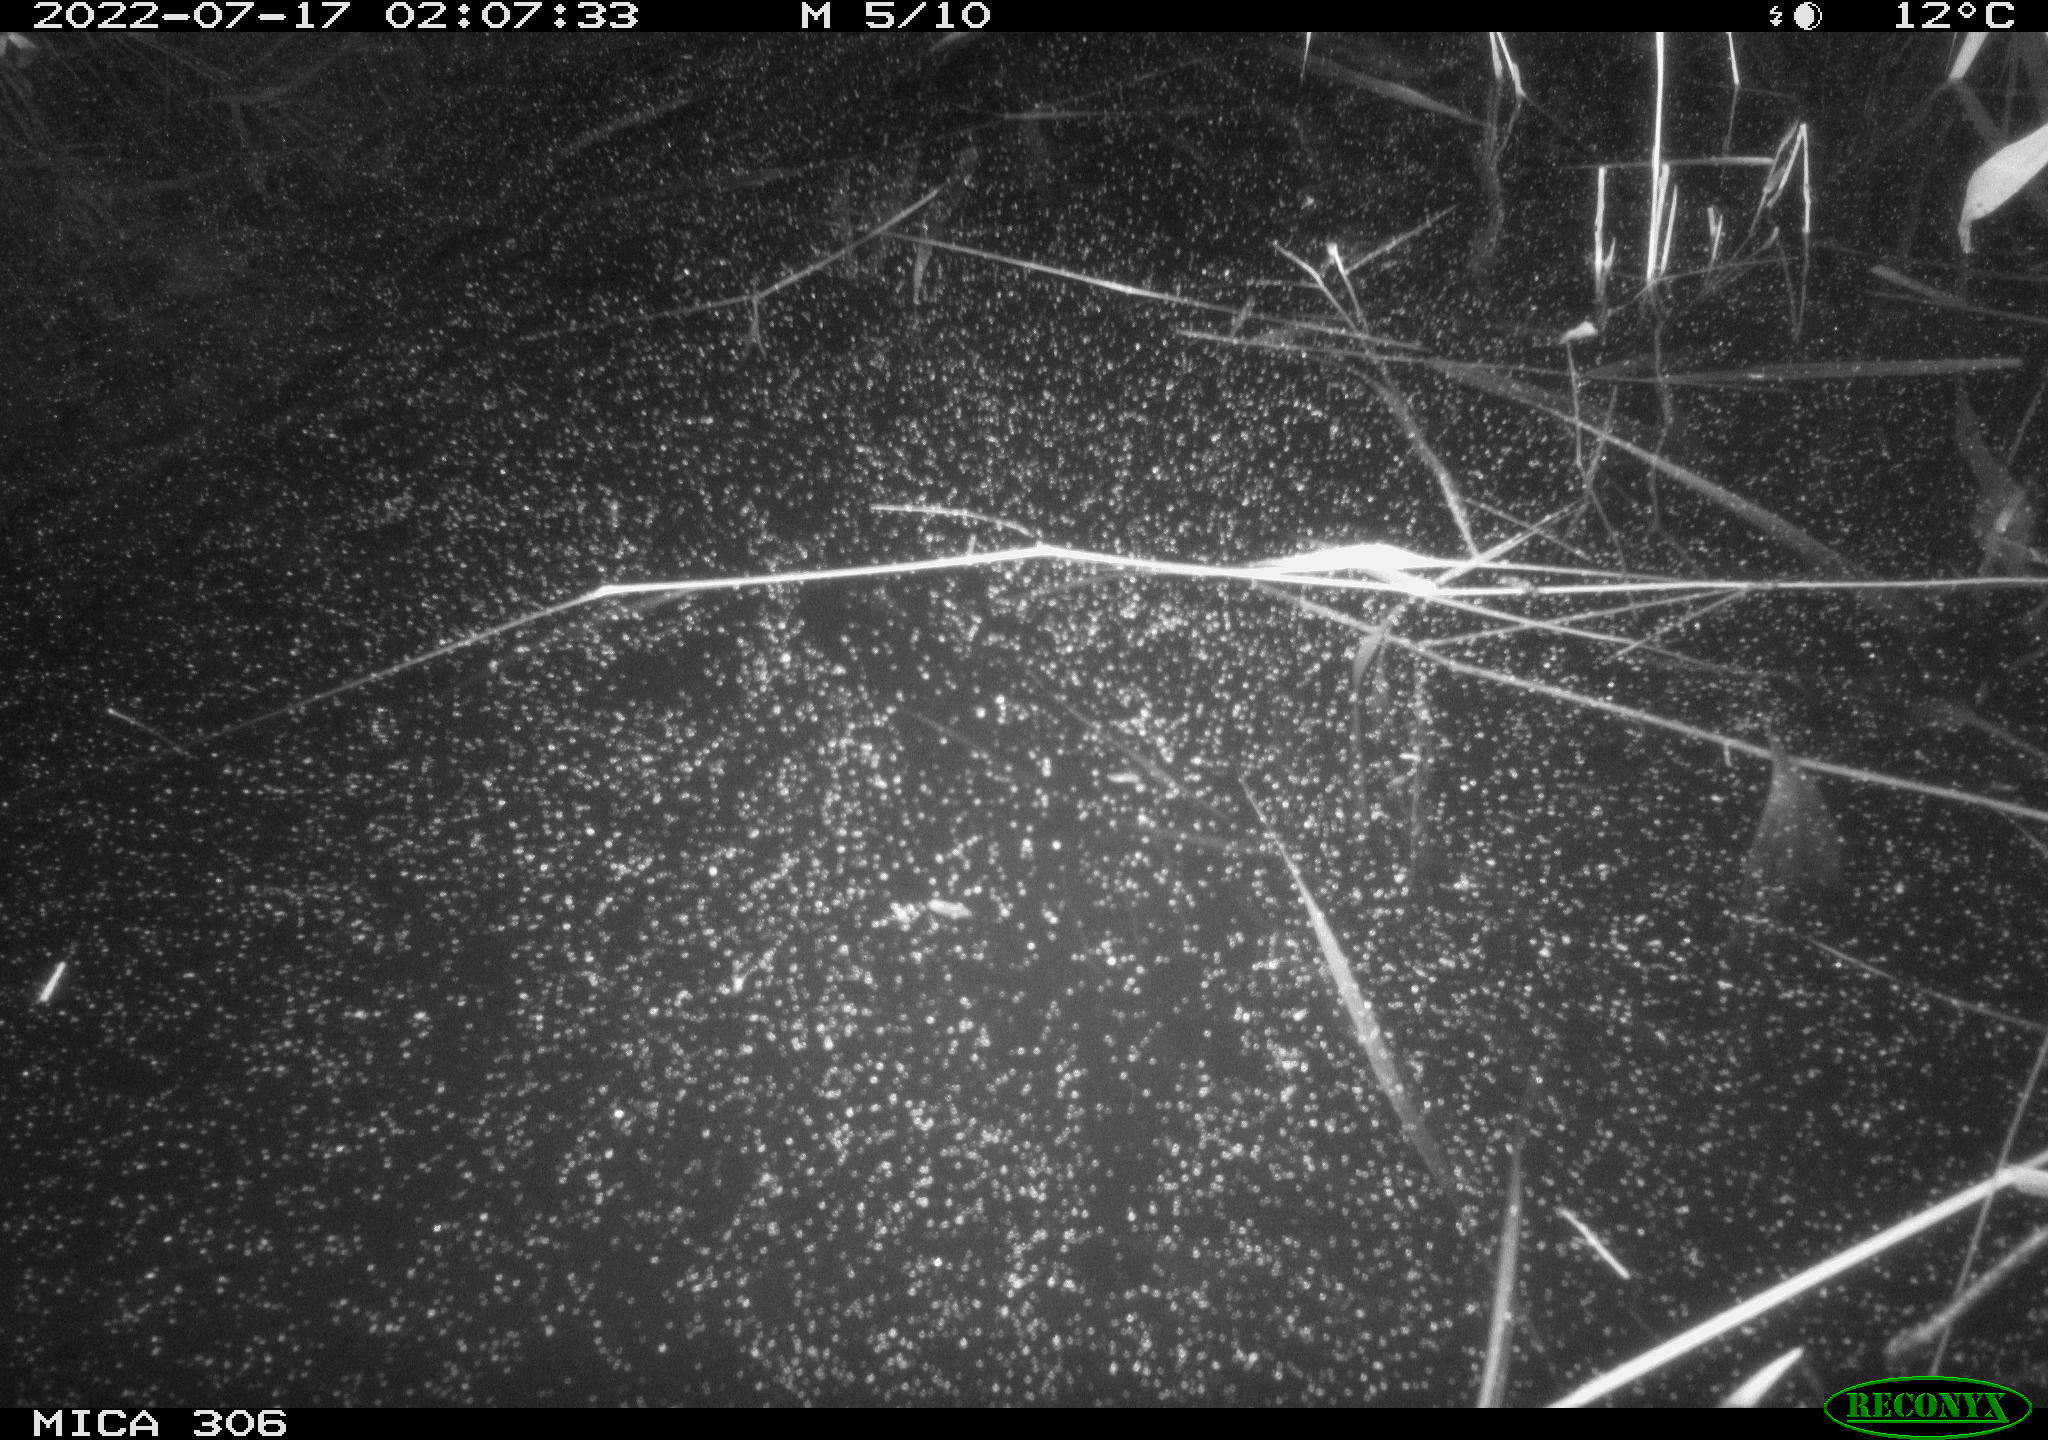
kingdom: Animalia
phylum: Chordata
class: Mammalia
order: Rodentia
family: Cricetidae
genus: Ondatra
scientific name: Ondatra zibethicus
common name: Muskrat
